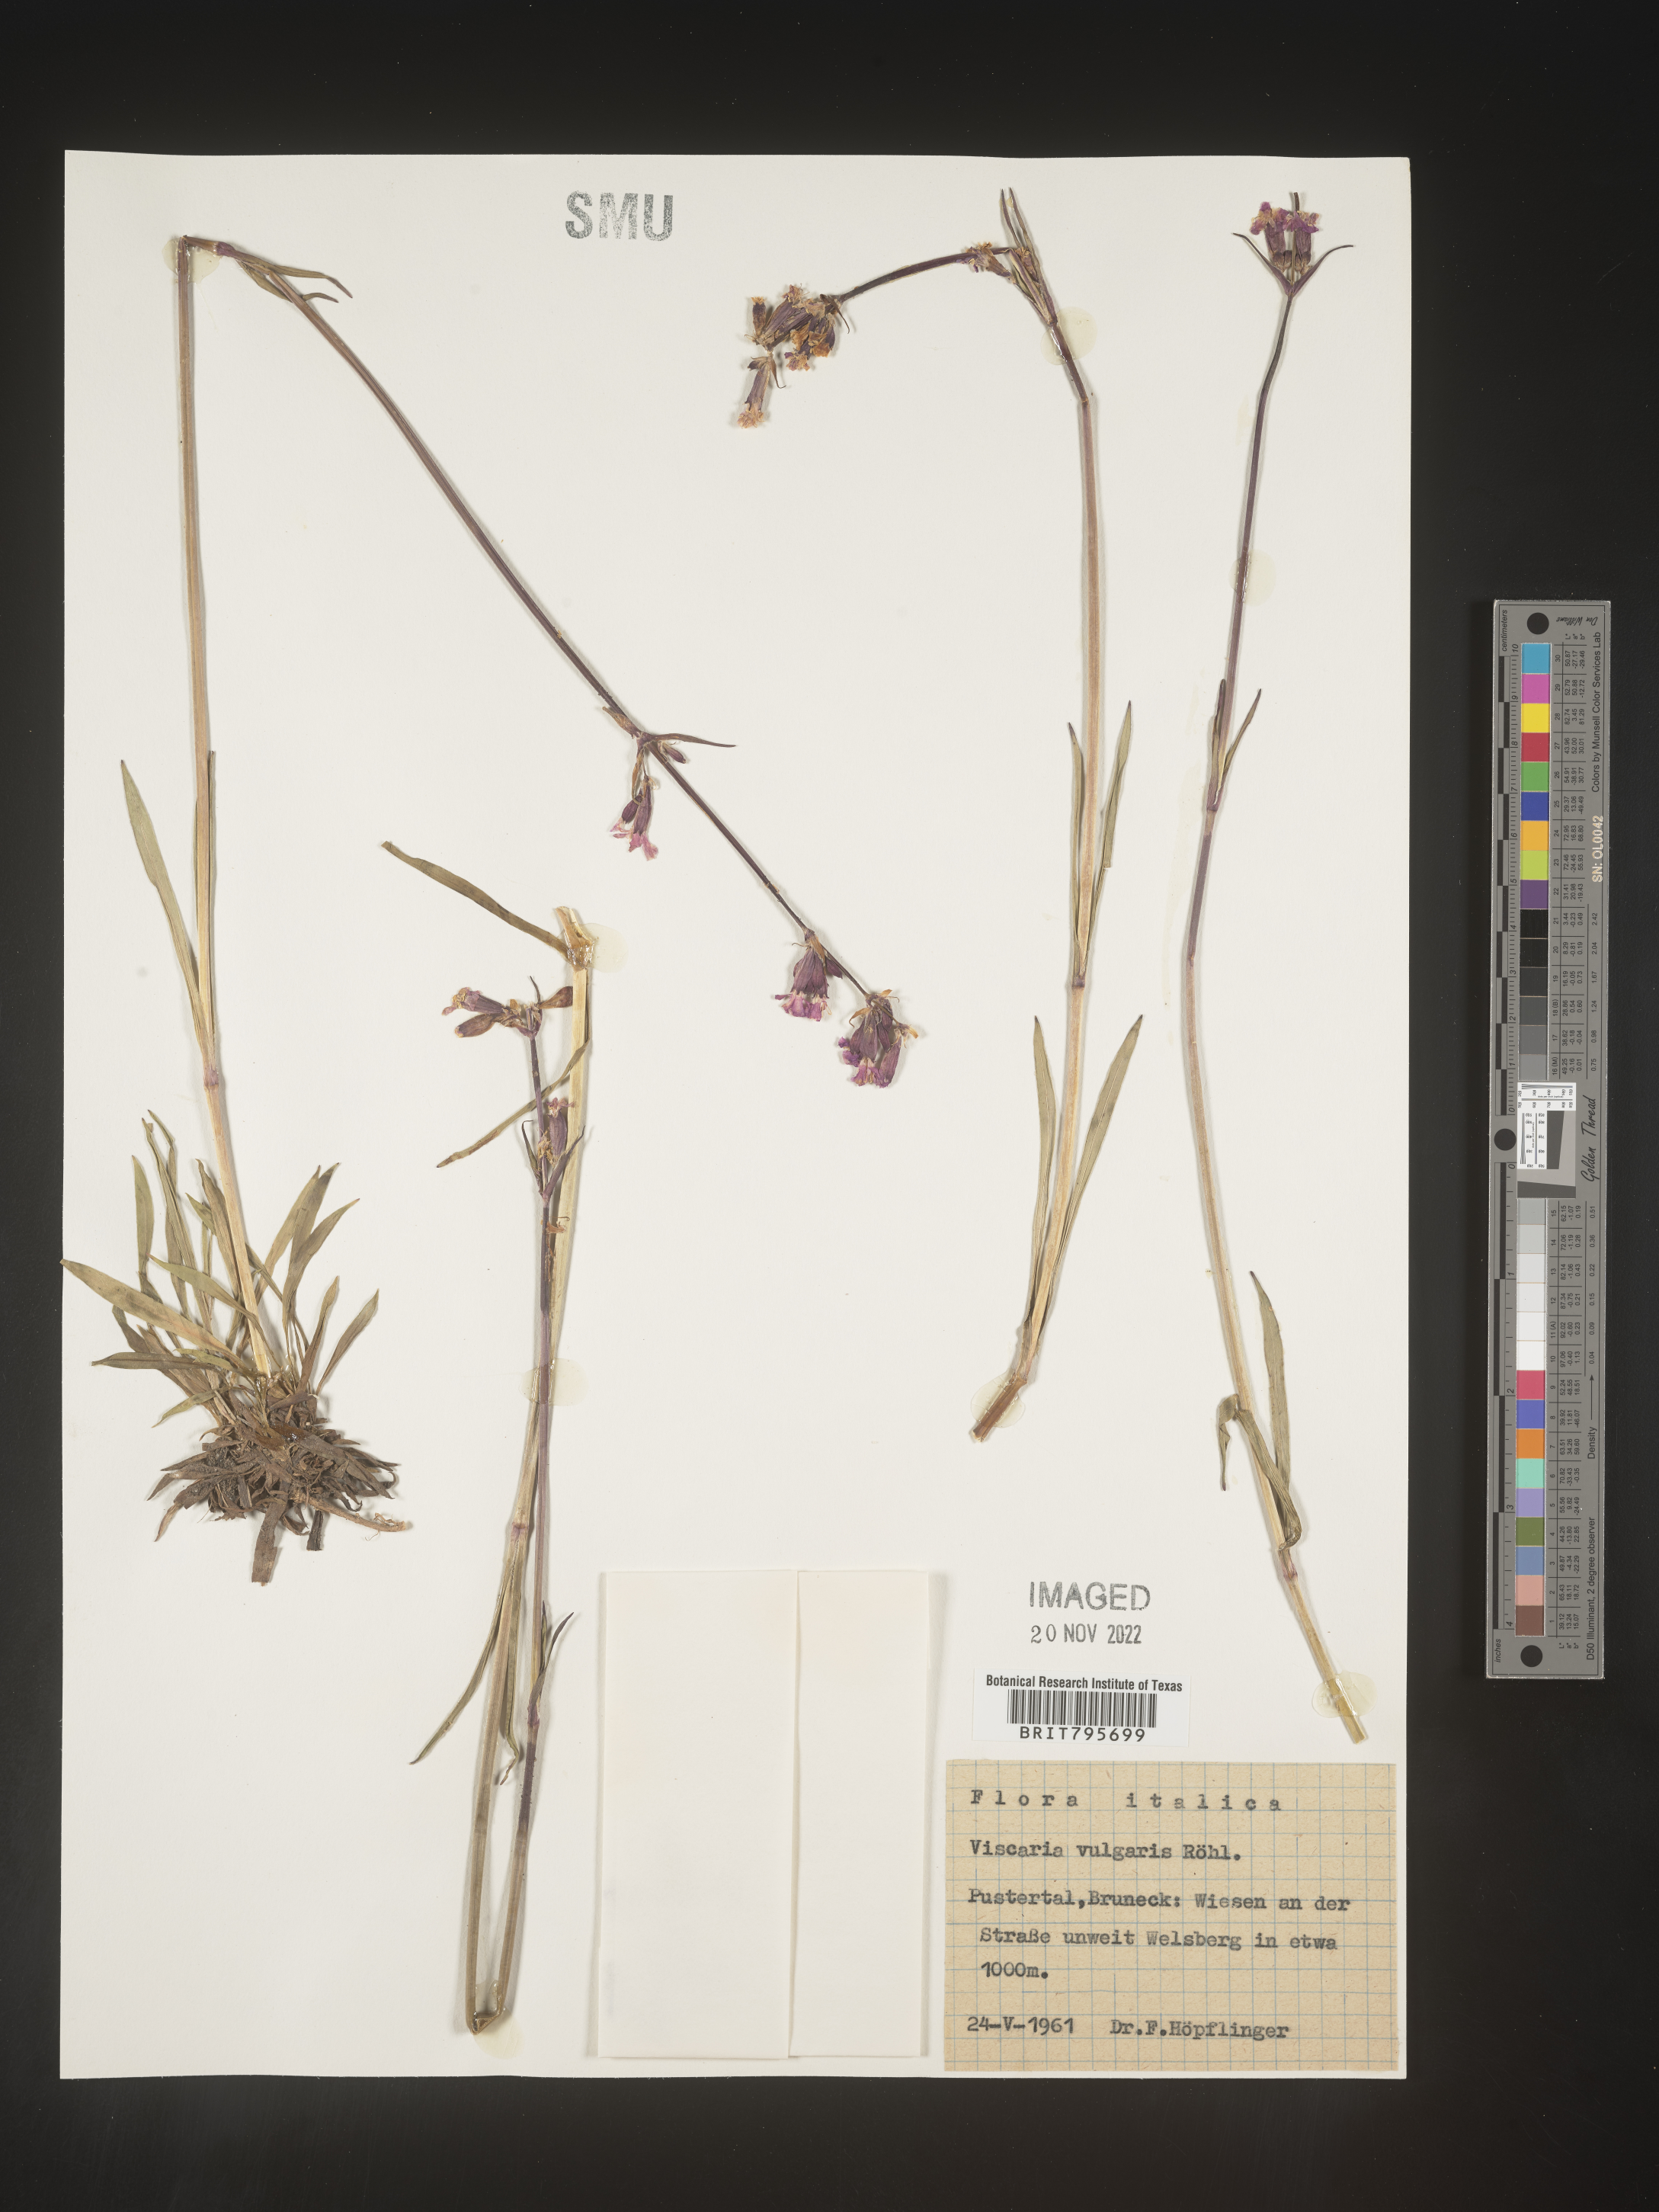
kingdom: Plantae
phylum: Tracheophyta
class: Magnoliopsida
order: Caryophyllales
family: Caryophyllaceae
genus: Viscaria
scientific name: Viscaria
